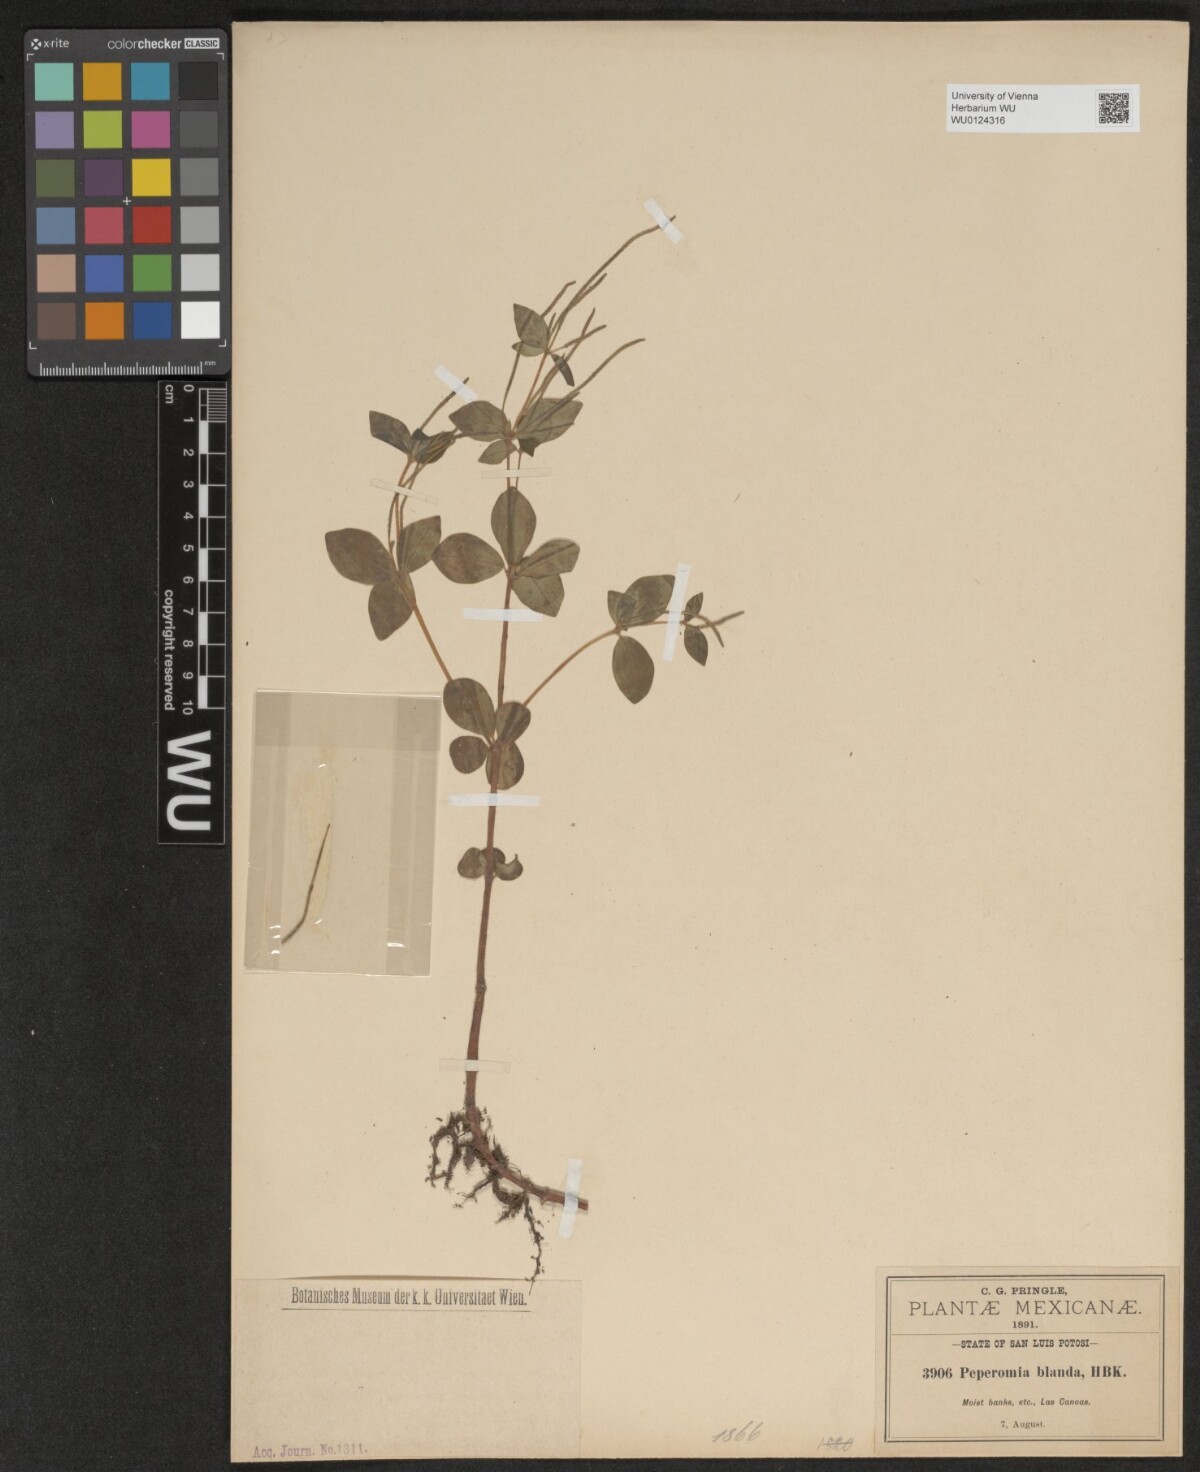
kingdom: Plantae
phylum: Tracheophyta
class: Magnoliopsida
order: Piperales
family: Piperaceae
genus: Peperomia
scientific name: Peperomia blanda
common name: Arid-land peperomia
